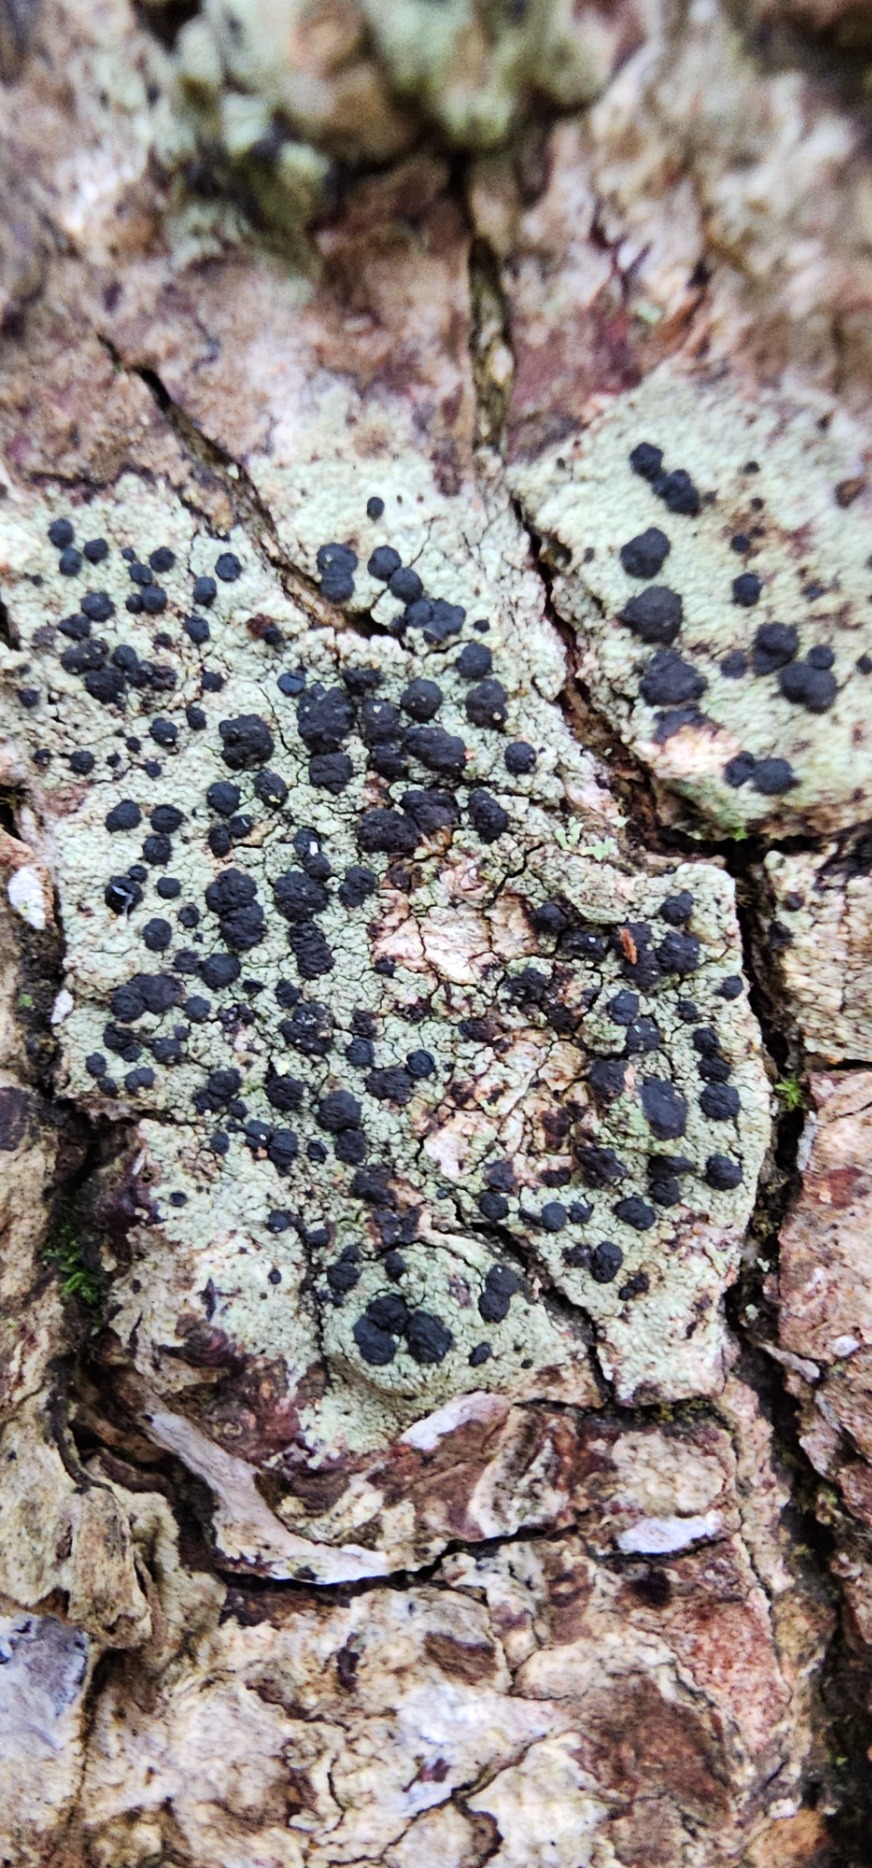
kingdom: Fungi
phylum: Ascomycota
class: Lecanoromycetes
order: Lecanorales
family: Lecanoraceae
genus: Lecidella
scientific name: Lecidella elaeochroma
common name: Grågrøn skivelav
